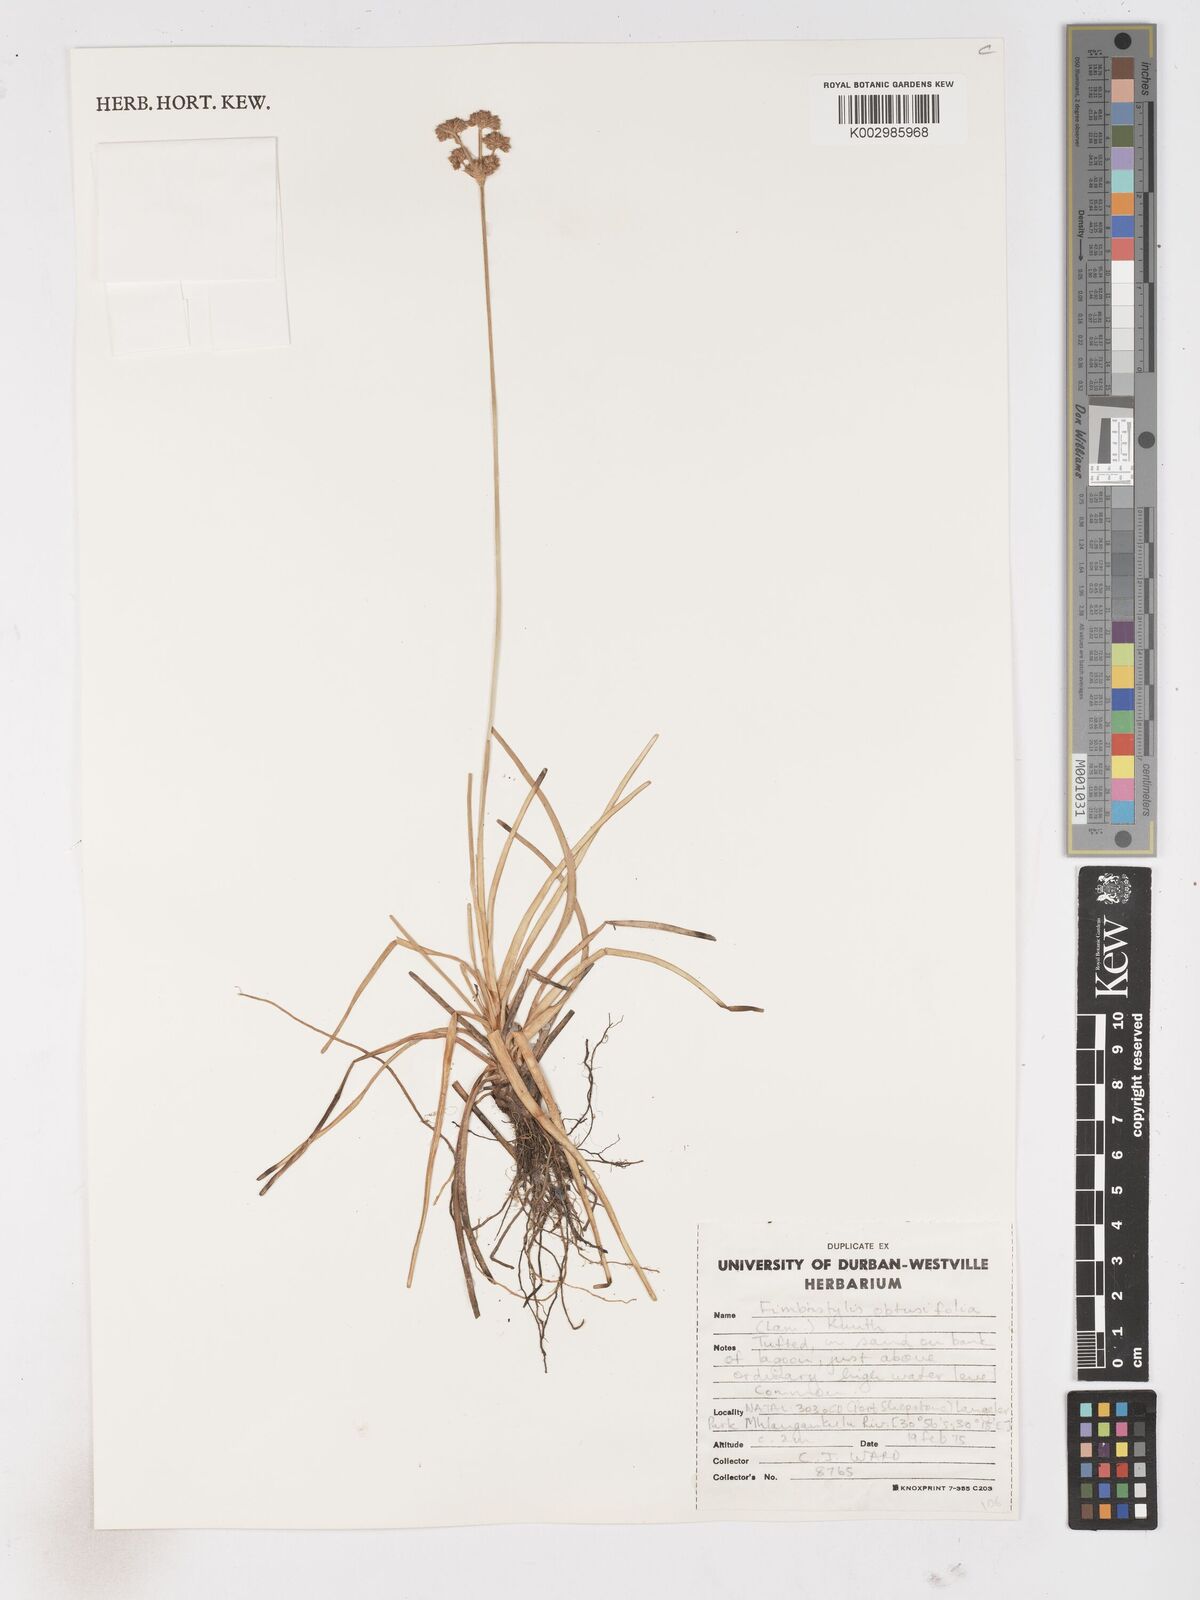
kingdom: Plantae
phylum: Tracheophyta
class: Liliopsida
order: Poales
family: Cyperaceae
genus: Fimbristylis
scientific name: Fimbristylis cymosa
